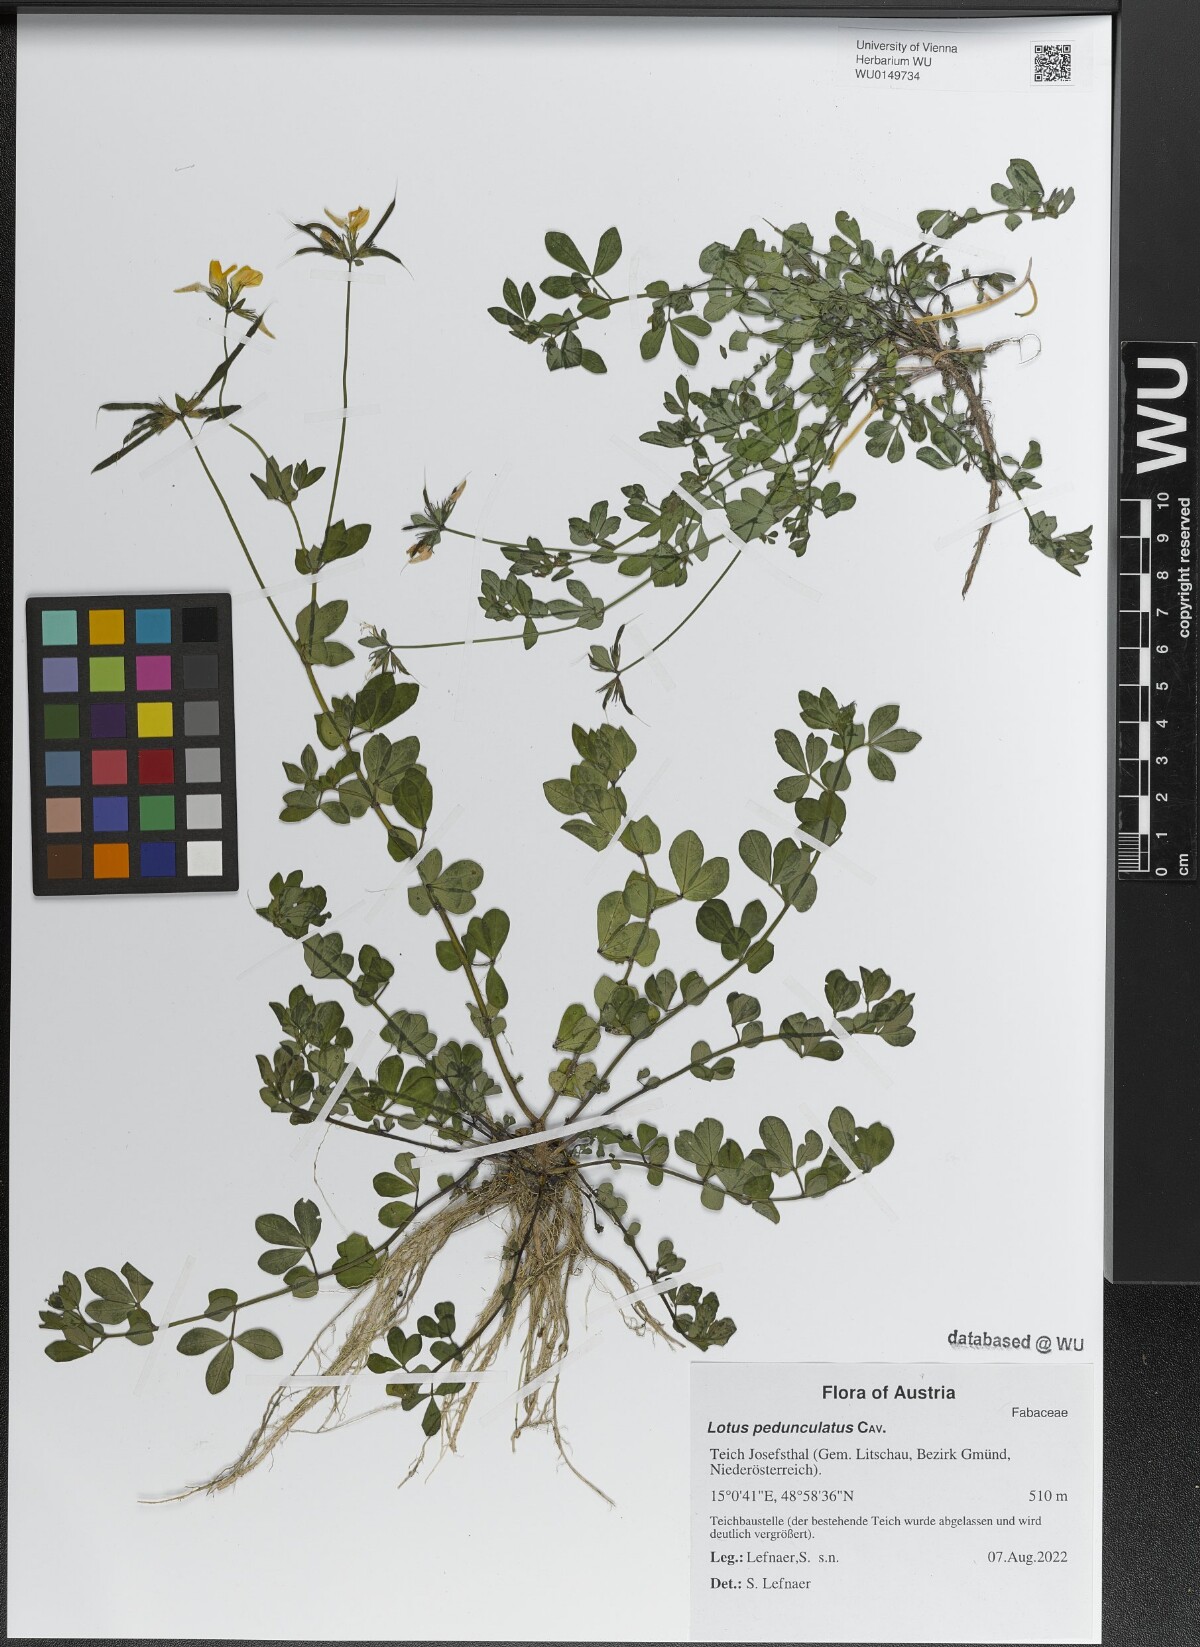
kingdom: Plantae
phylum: Tracheophyta
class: Magnoliopsida
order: Fabales
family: Fabaceae
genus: Lotus
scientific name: Lotus pedunculatus
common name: Greater birdsfoot-trefoil
